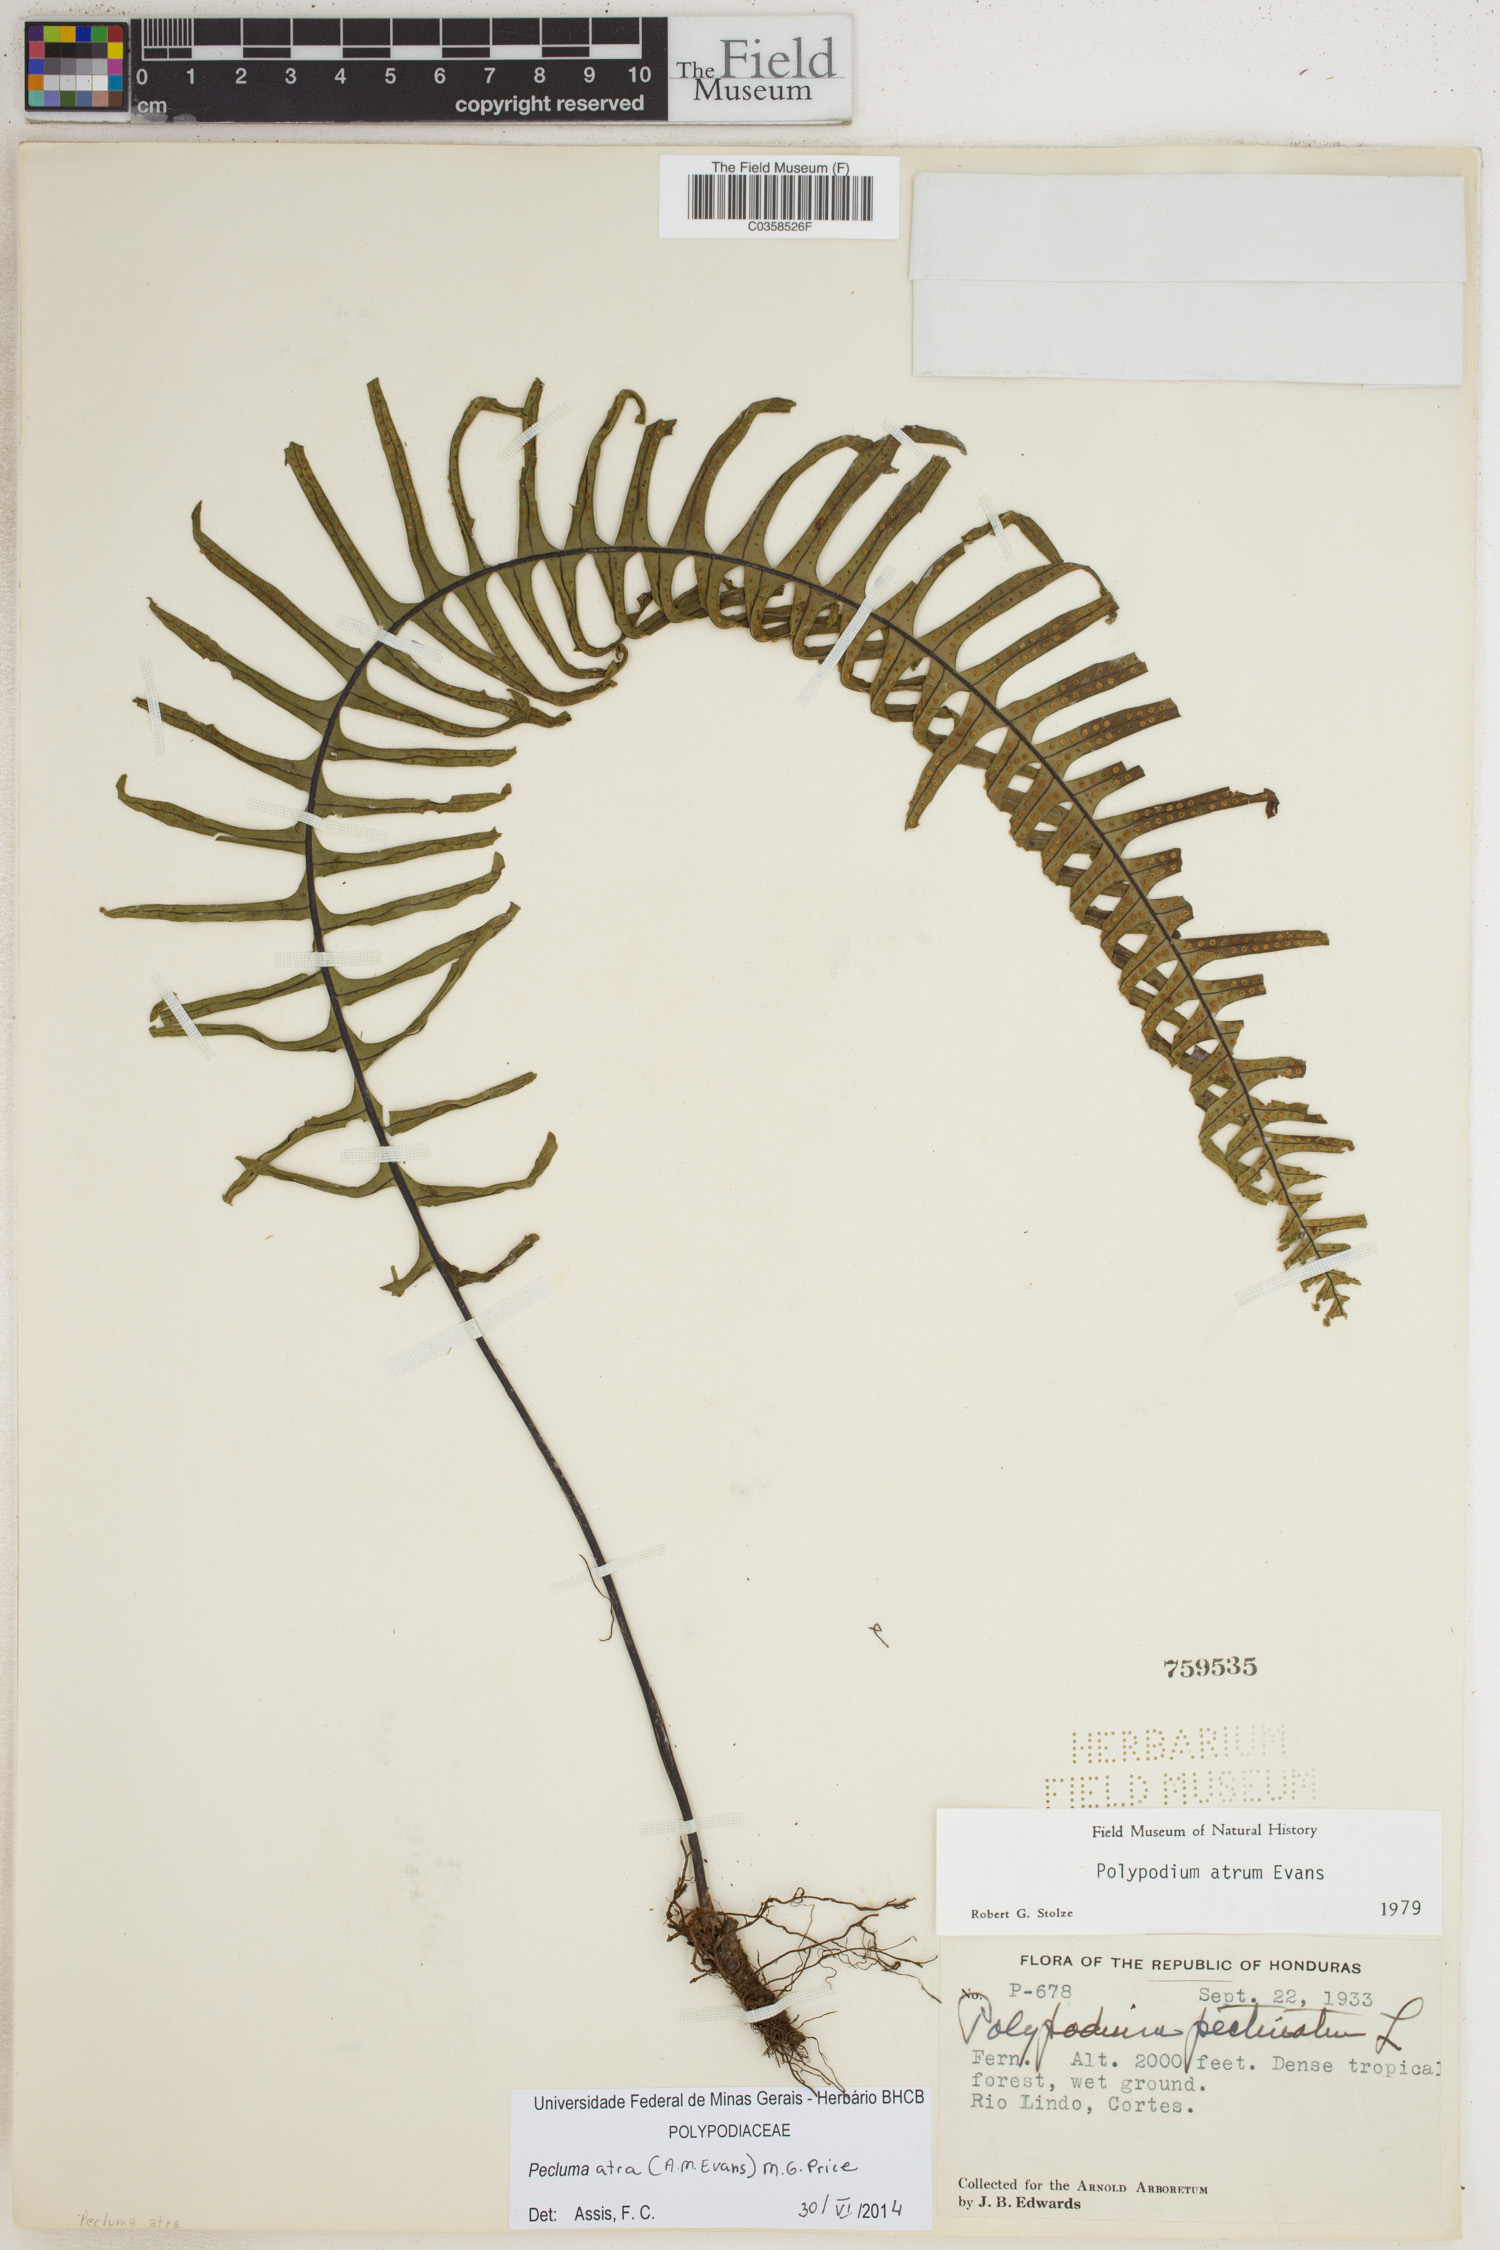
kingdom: Plantae
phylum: Tracheophyta
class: Polypodiopsida
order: Polypodiales
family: Polypodiaceae
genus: Pecluma
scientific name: Pecluma atra
